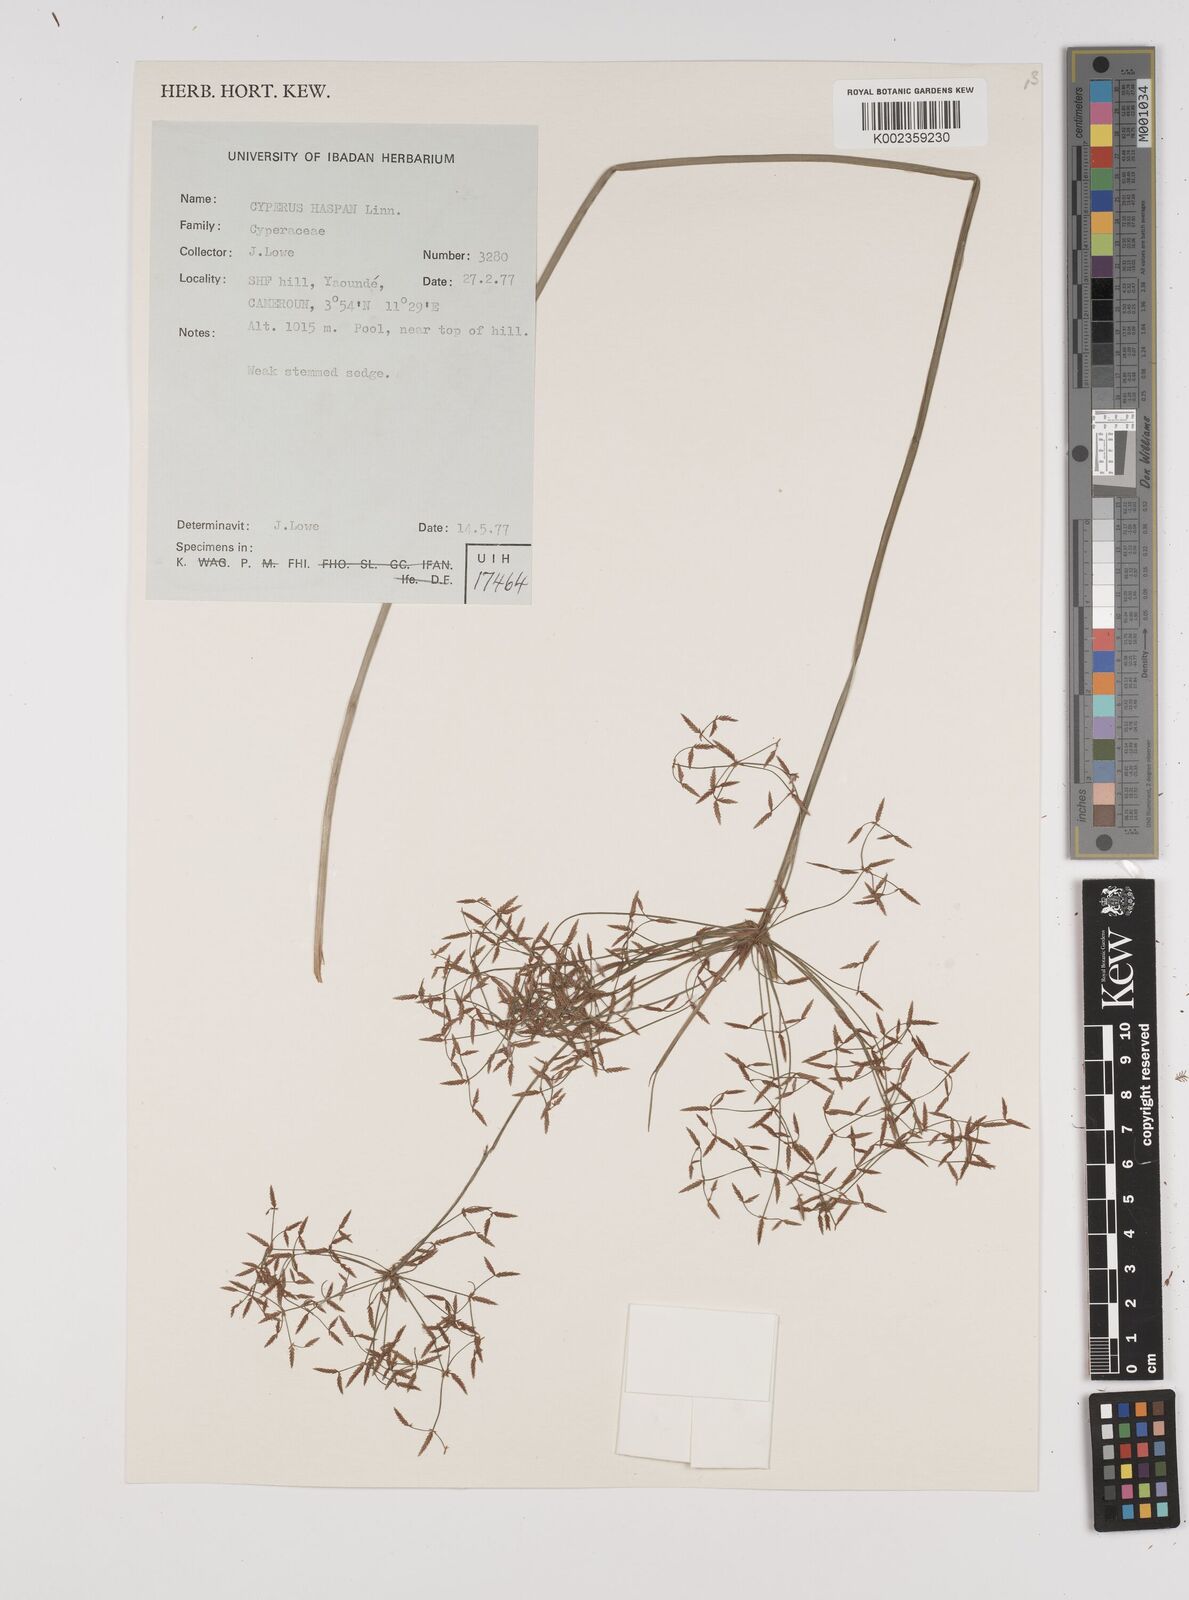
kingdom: Plantae
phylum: Tracheophyta
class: Liliopsida
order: Poales
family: Cyperaceae
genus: Cyperus
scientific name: Cyperus haspan
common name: Haspan flatsedge
